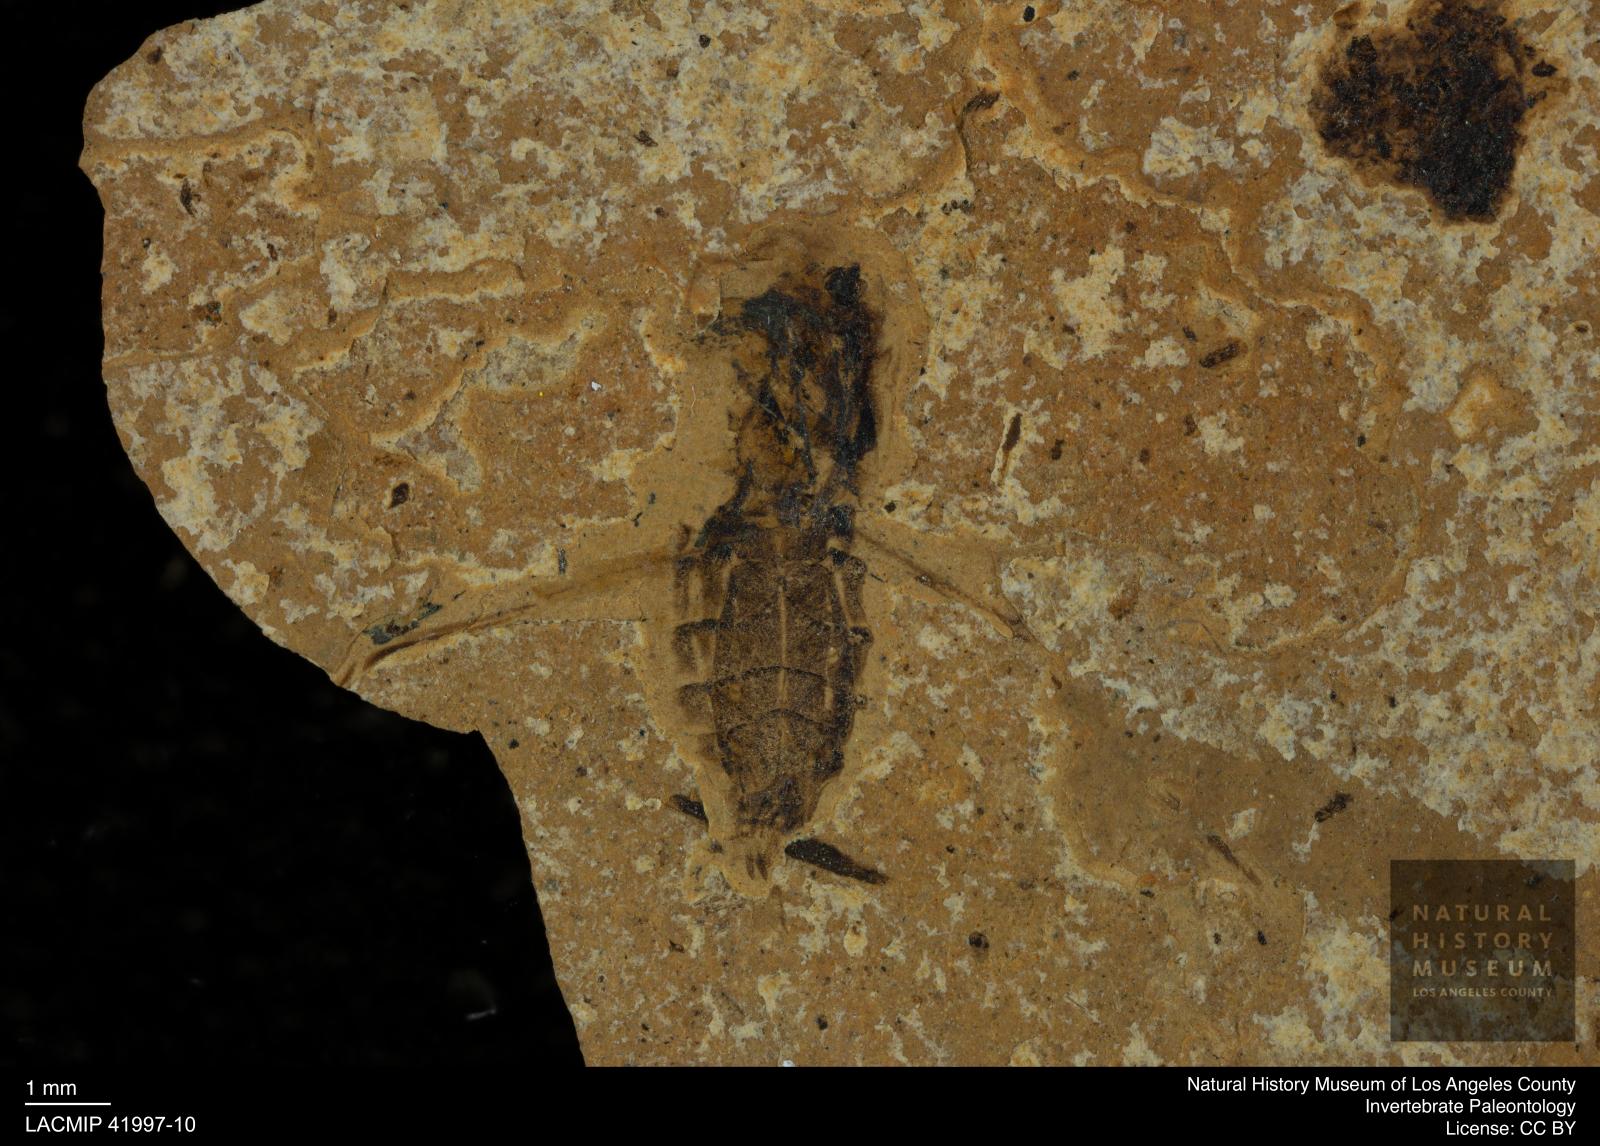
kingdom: Animalia
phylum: Arthropoda
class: Insecta
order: Hemiptera
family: Notonectidae
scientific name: Notonectidae
